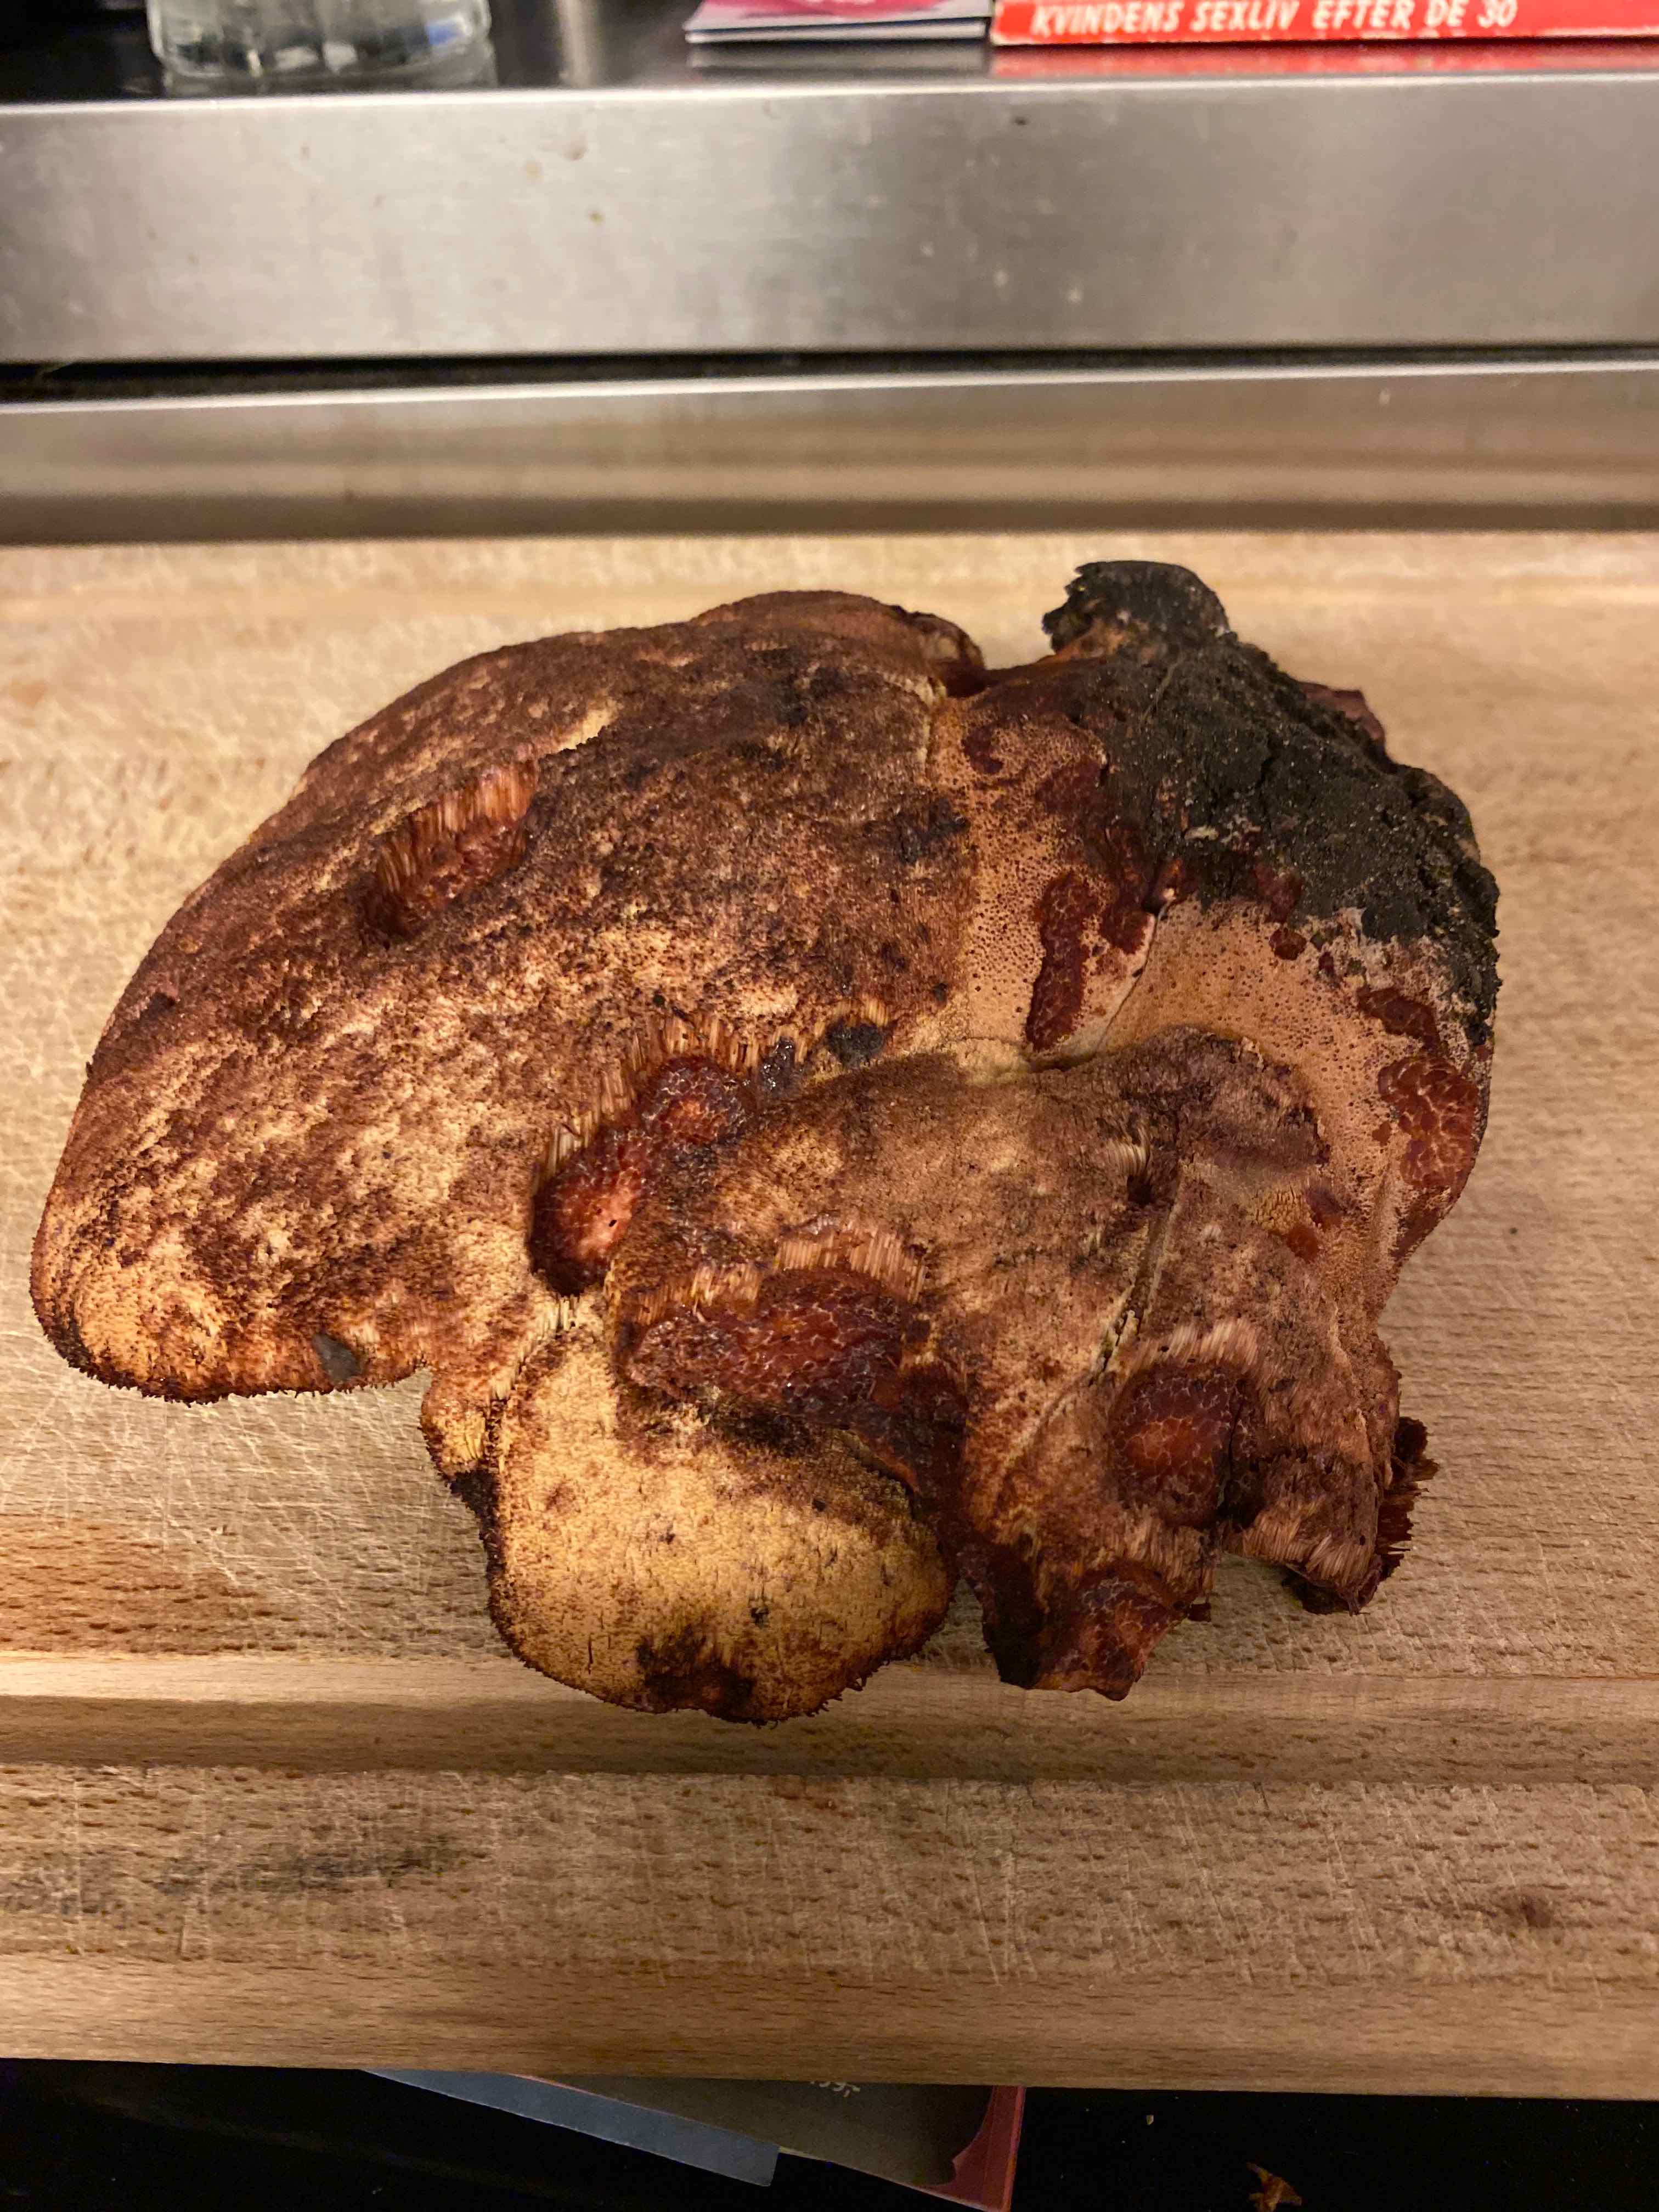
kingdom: Fungi
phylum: Basidiomycota
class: Agaricomycetes
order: Agaricales
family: Fistulinaceae
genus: Fistulina
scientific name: Fistulina hepatica
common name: oksetunge
